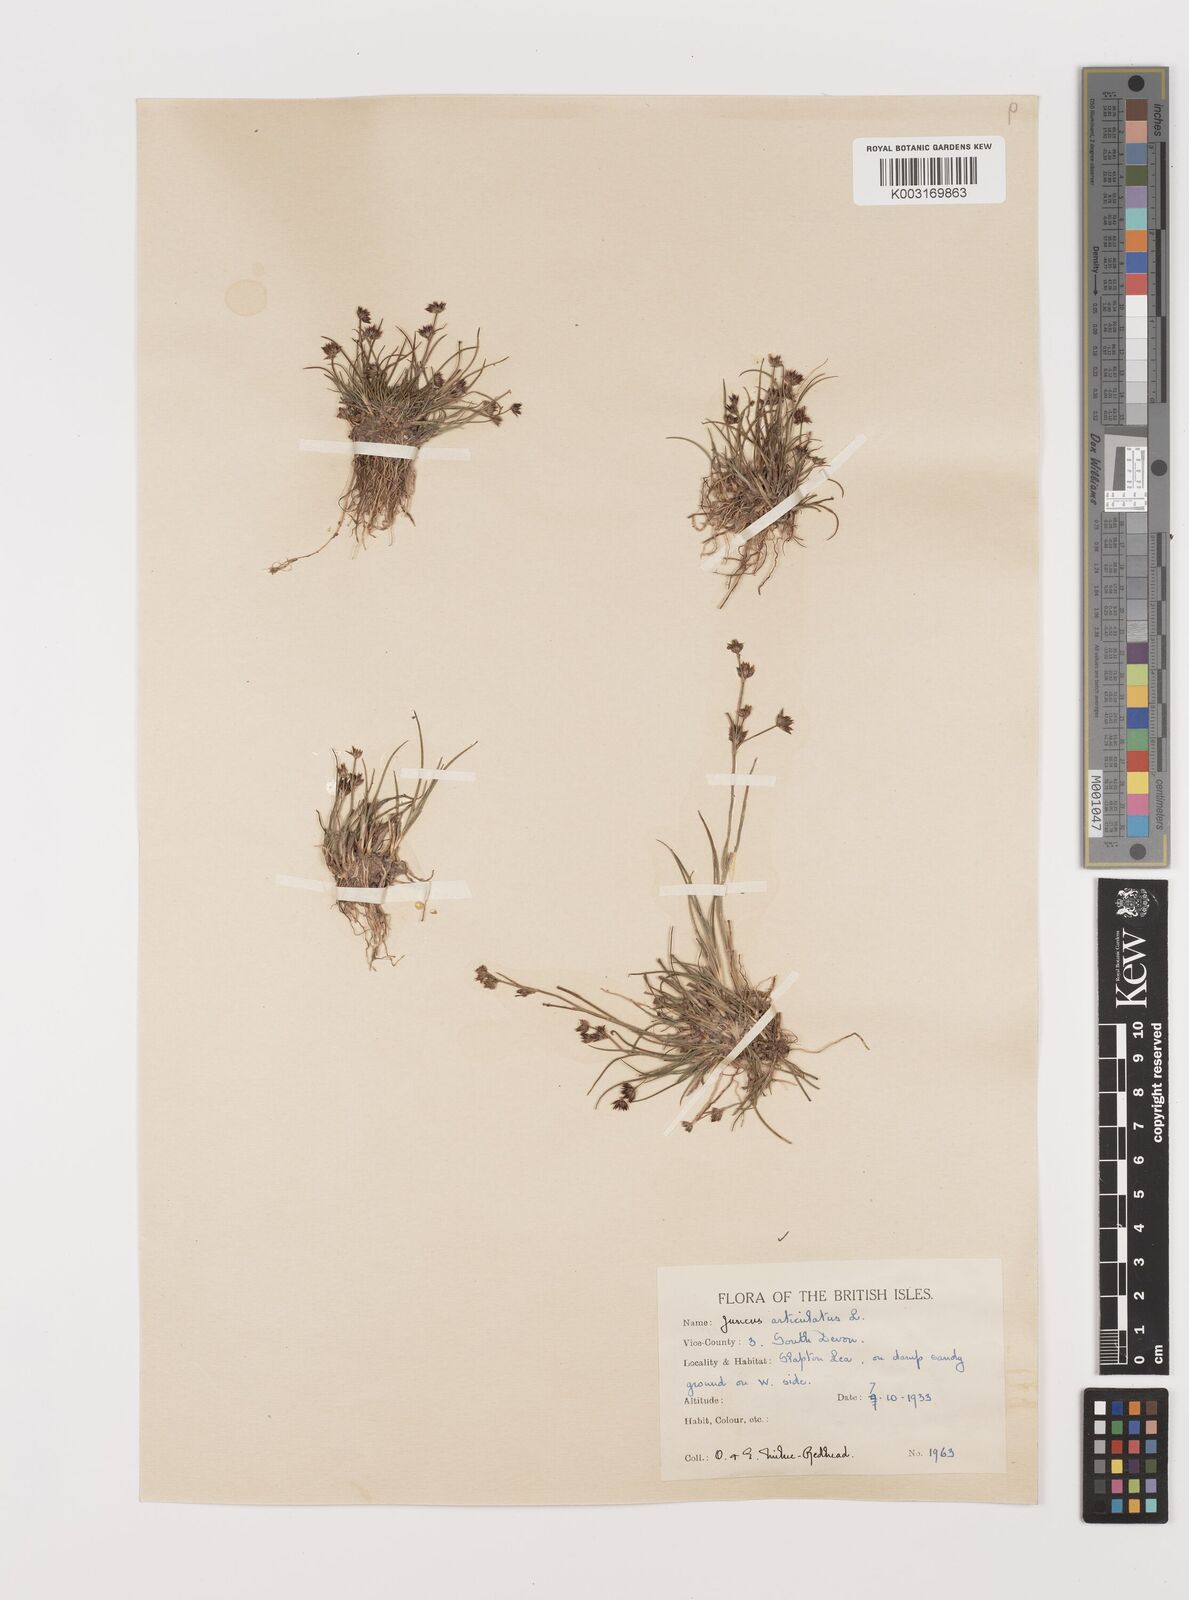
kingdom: Plantae
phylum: Tracheophyta
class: Liliopsida
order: Poales
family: Juncaceae
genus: Juncus
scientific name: Juncus articulatus
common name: Jointed rush
